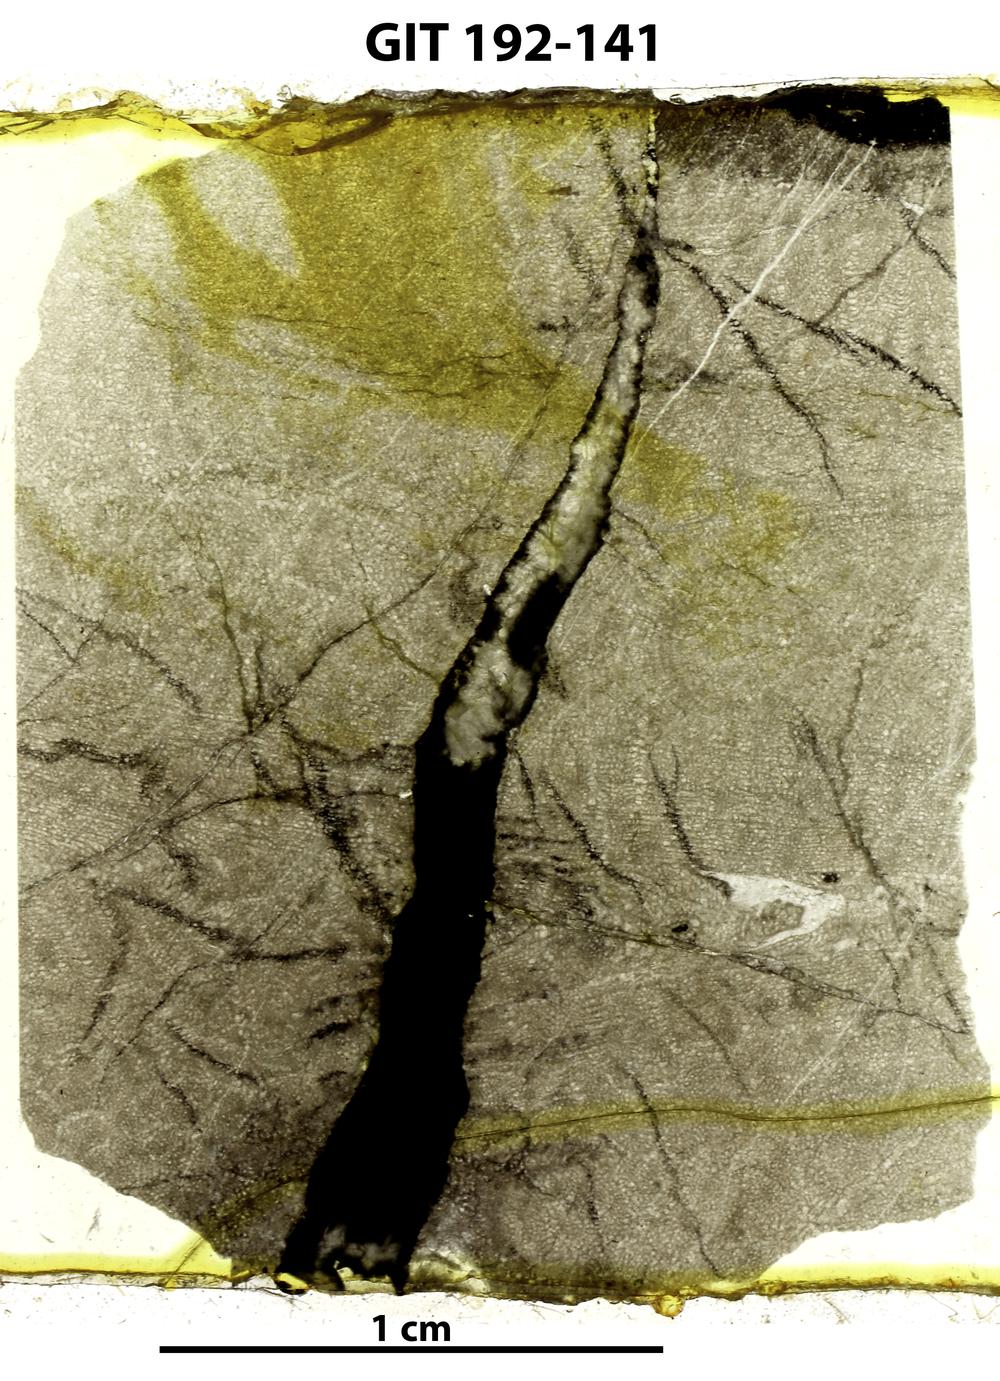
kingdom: Animalia
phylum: Porifera
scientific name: Porifera
